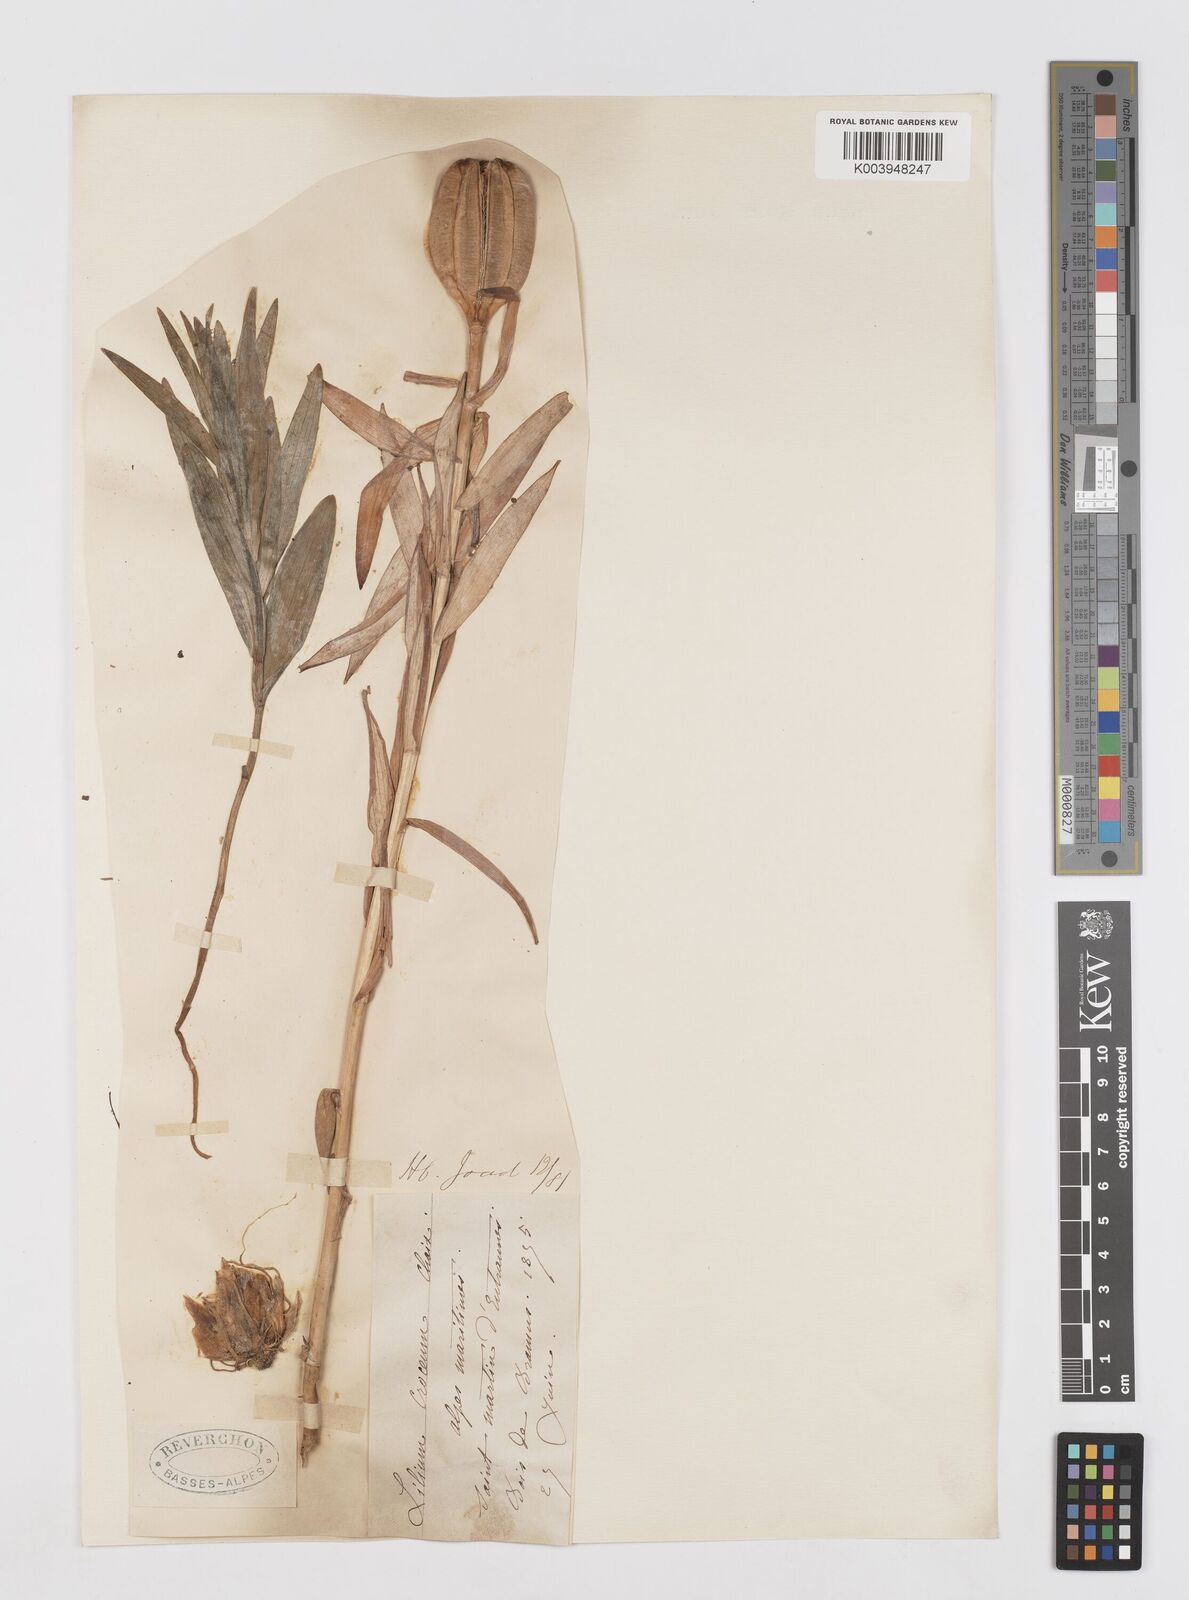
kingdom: Plantae
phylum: Tracheophyta
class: Liliopsida
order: Liliales
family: Liliaceae
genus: Lilium
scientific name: Lilium bulbiferum
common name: Orange lily
